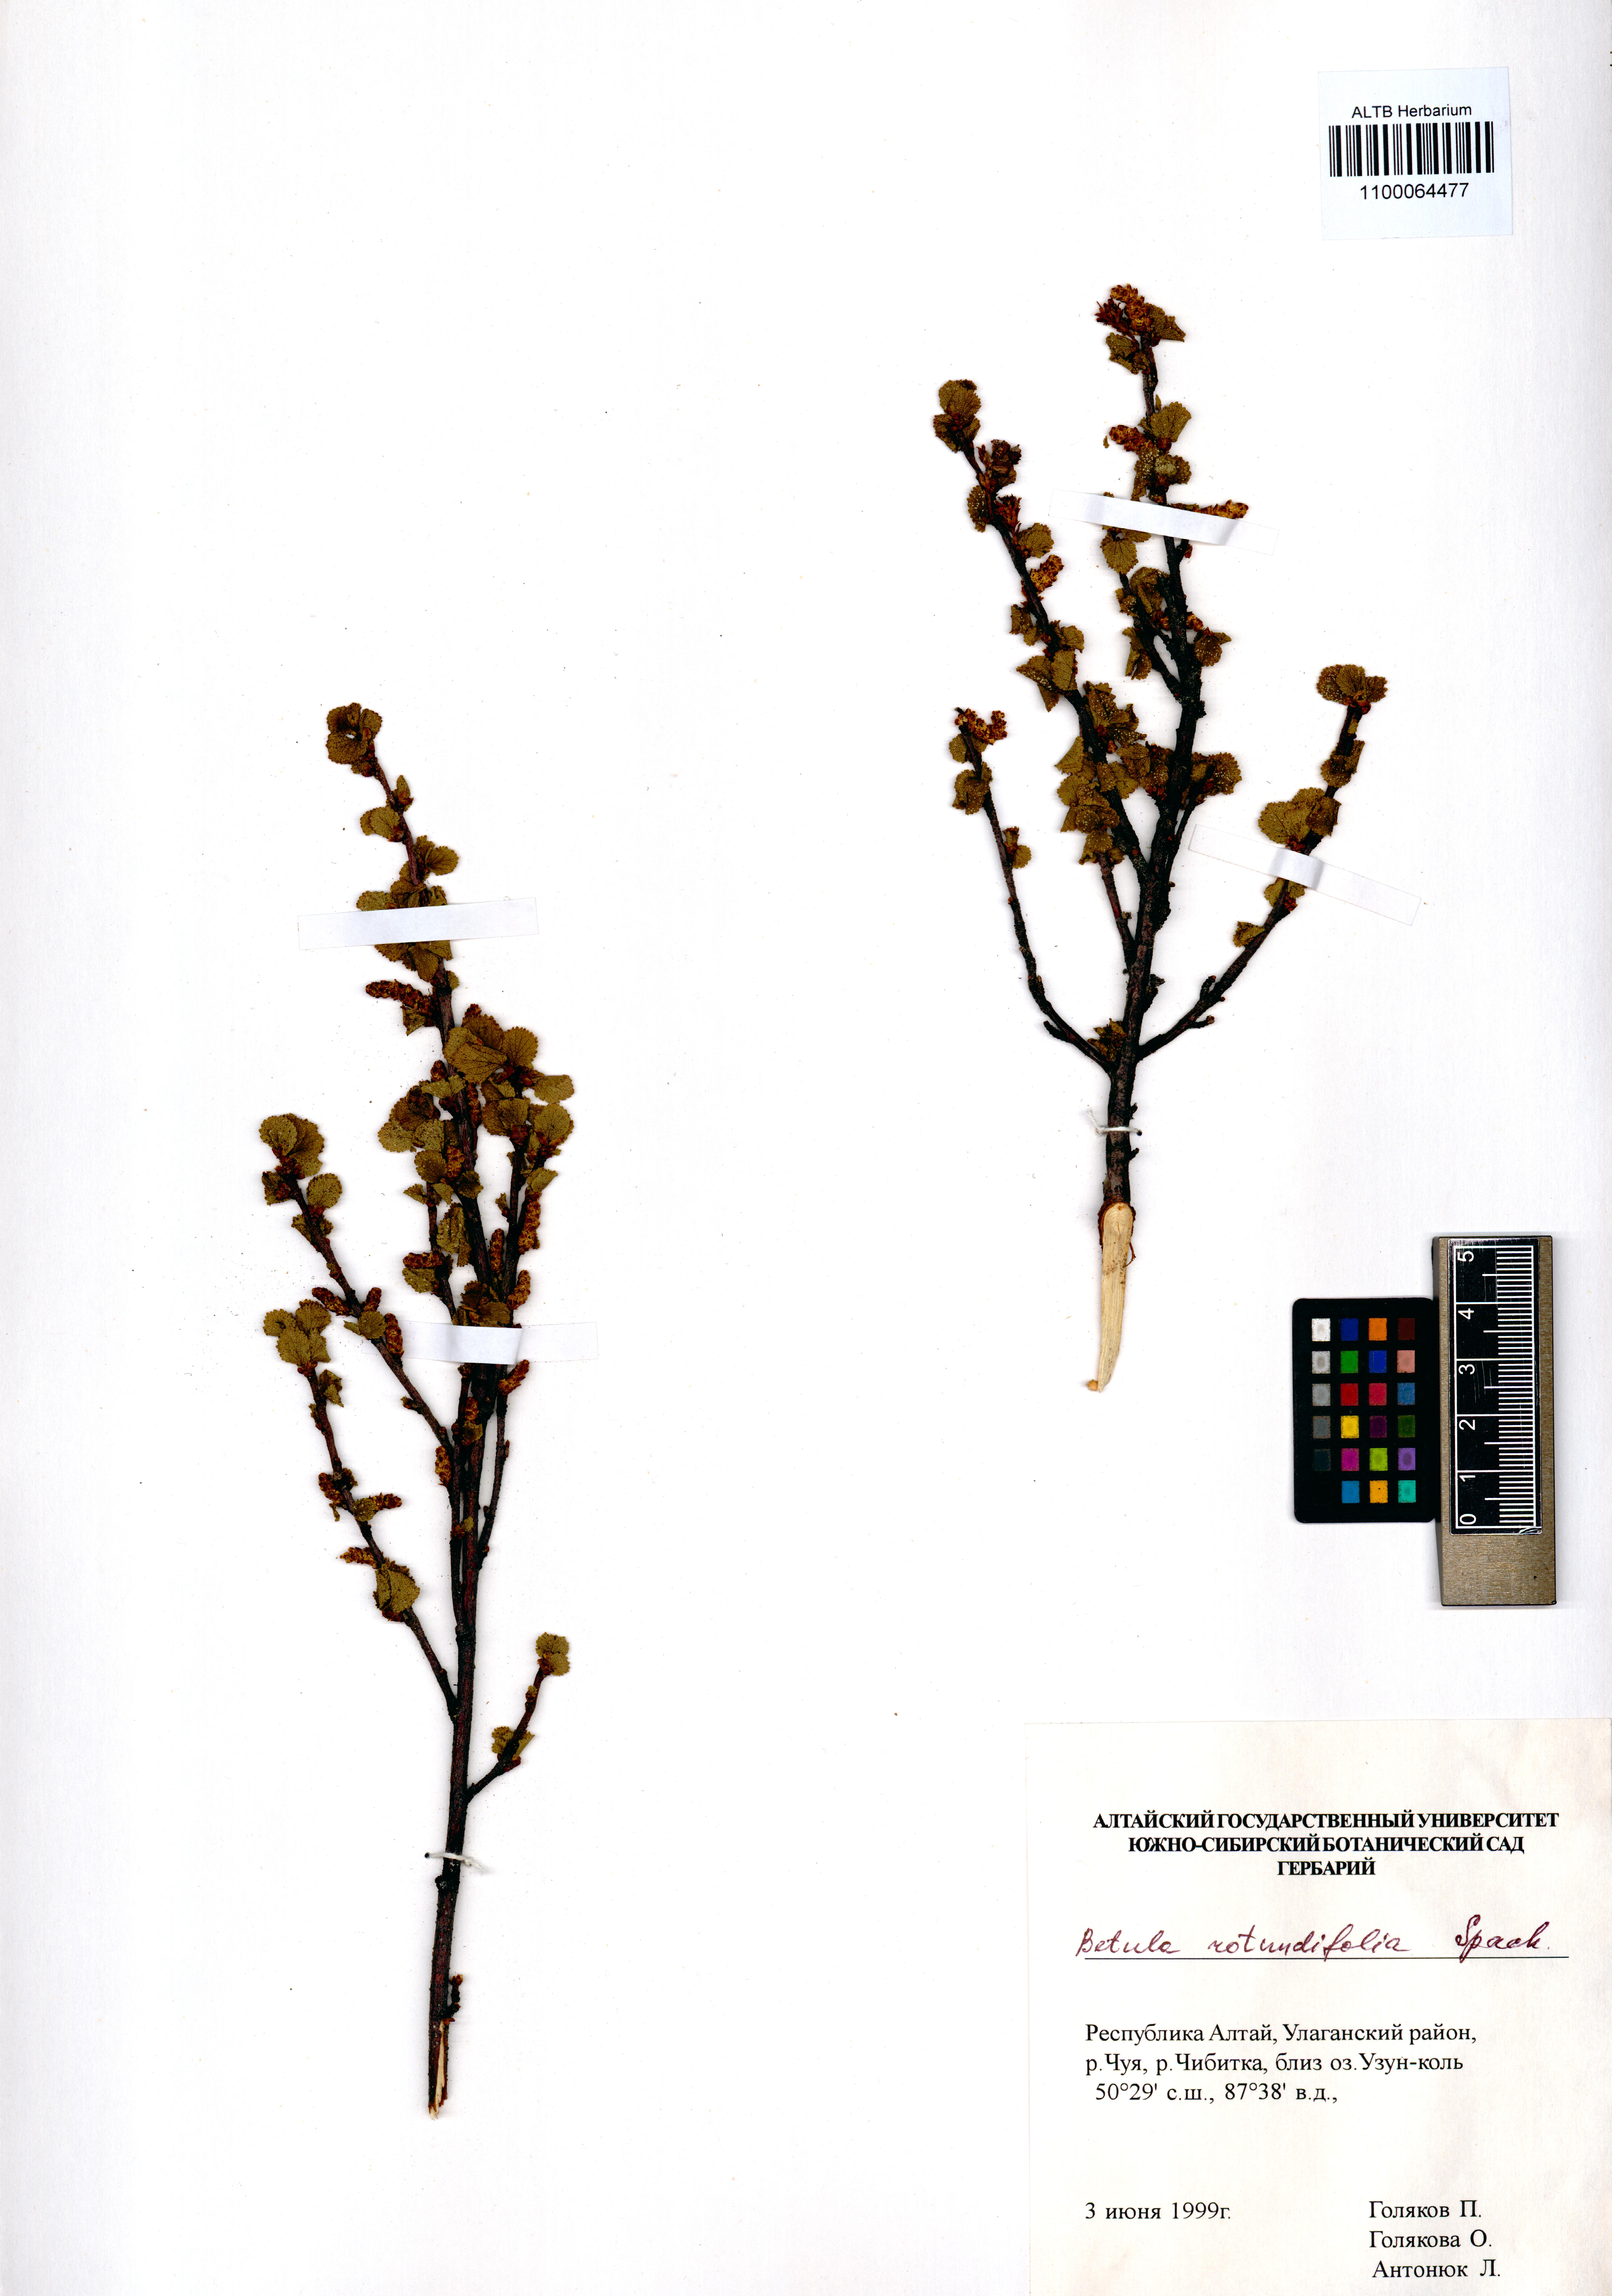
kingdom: Plantae
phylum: Tracheophyta
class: Magnoliopsida
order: Fagales
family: Betulaceae
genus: Betula
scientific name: Betula glandulosa
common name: Dwarf birch
